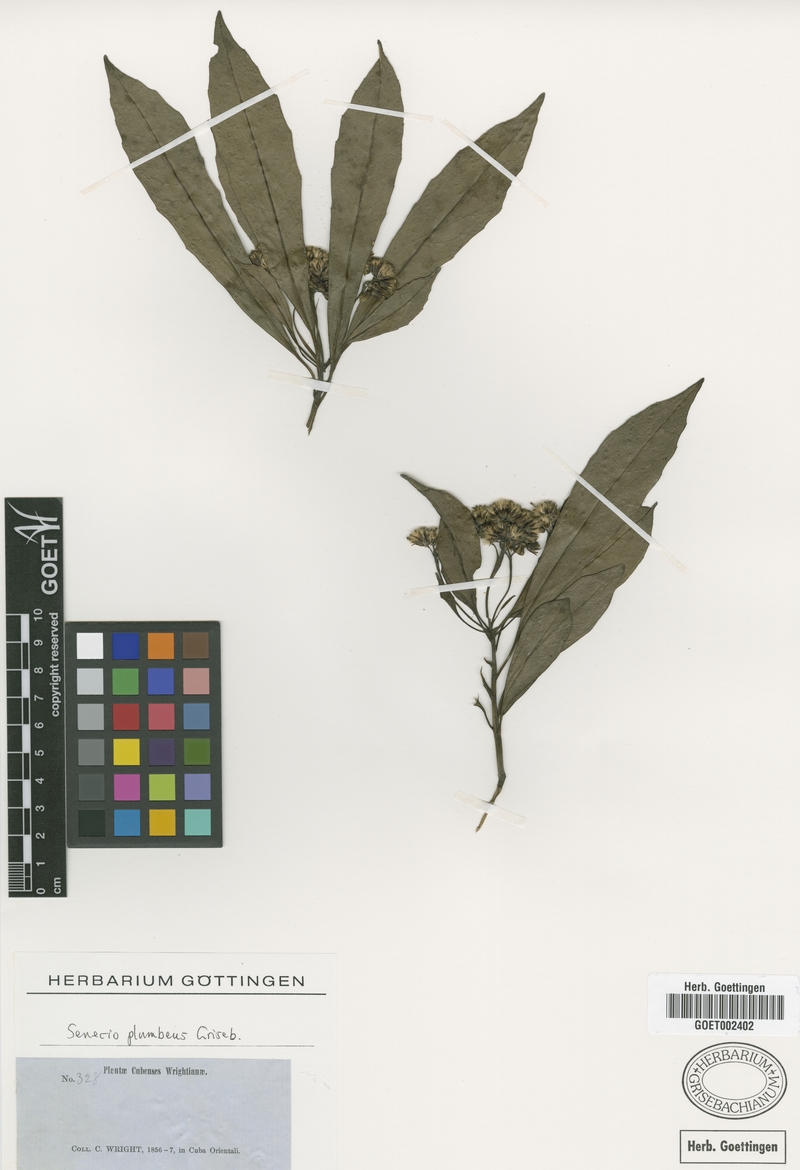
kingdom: Plantae
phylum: Tracheophyta
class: Magnoliopsida
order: Asterales
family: Asteraceae
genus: Lundinia
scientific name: Lundinia plumbea
